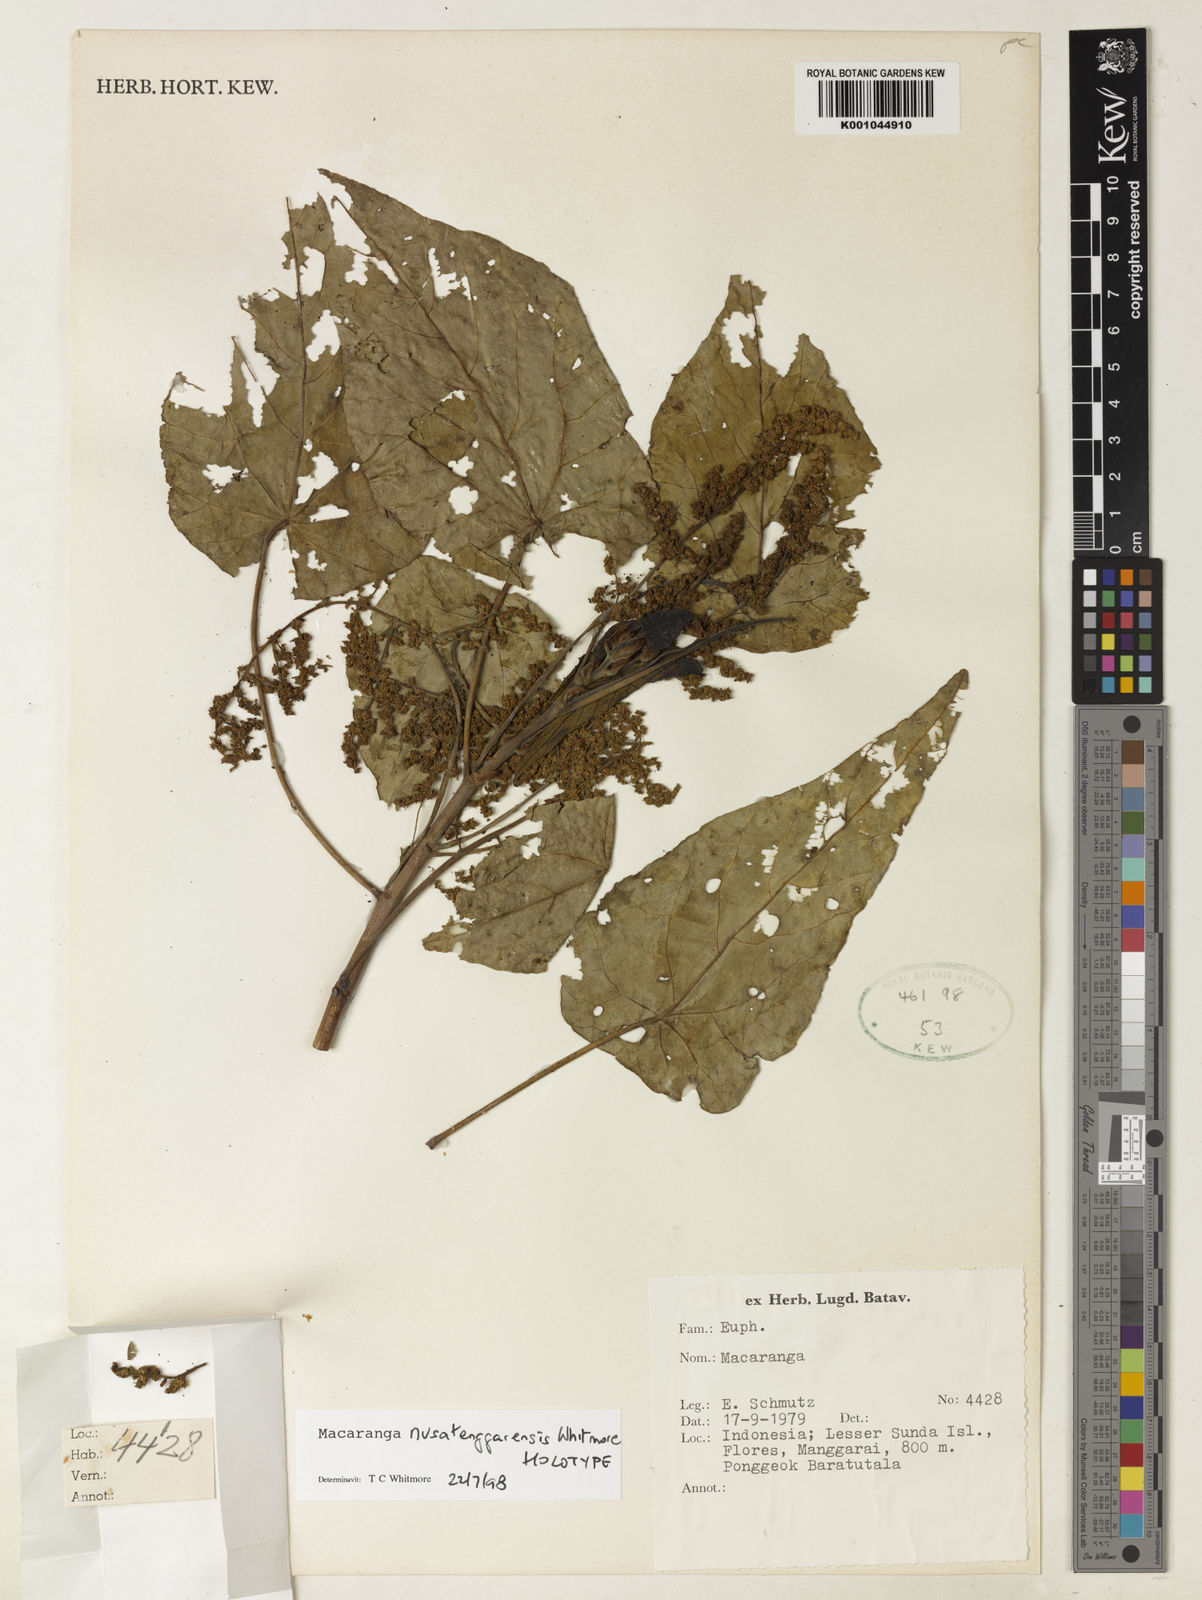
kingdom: Plantae
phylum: Tracheophyta
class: Magnoliopsida
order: Malpighiales
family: Euphorbiaceae
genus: Macaranga
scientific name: Macaranga nusatenggarensis
